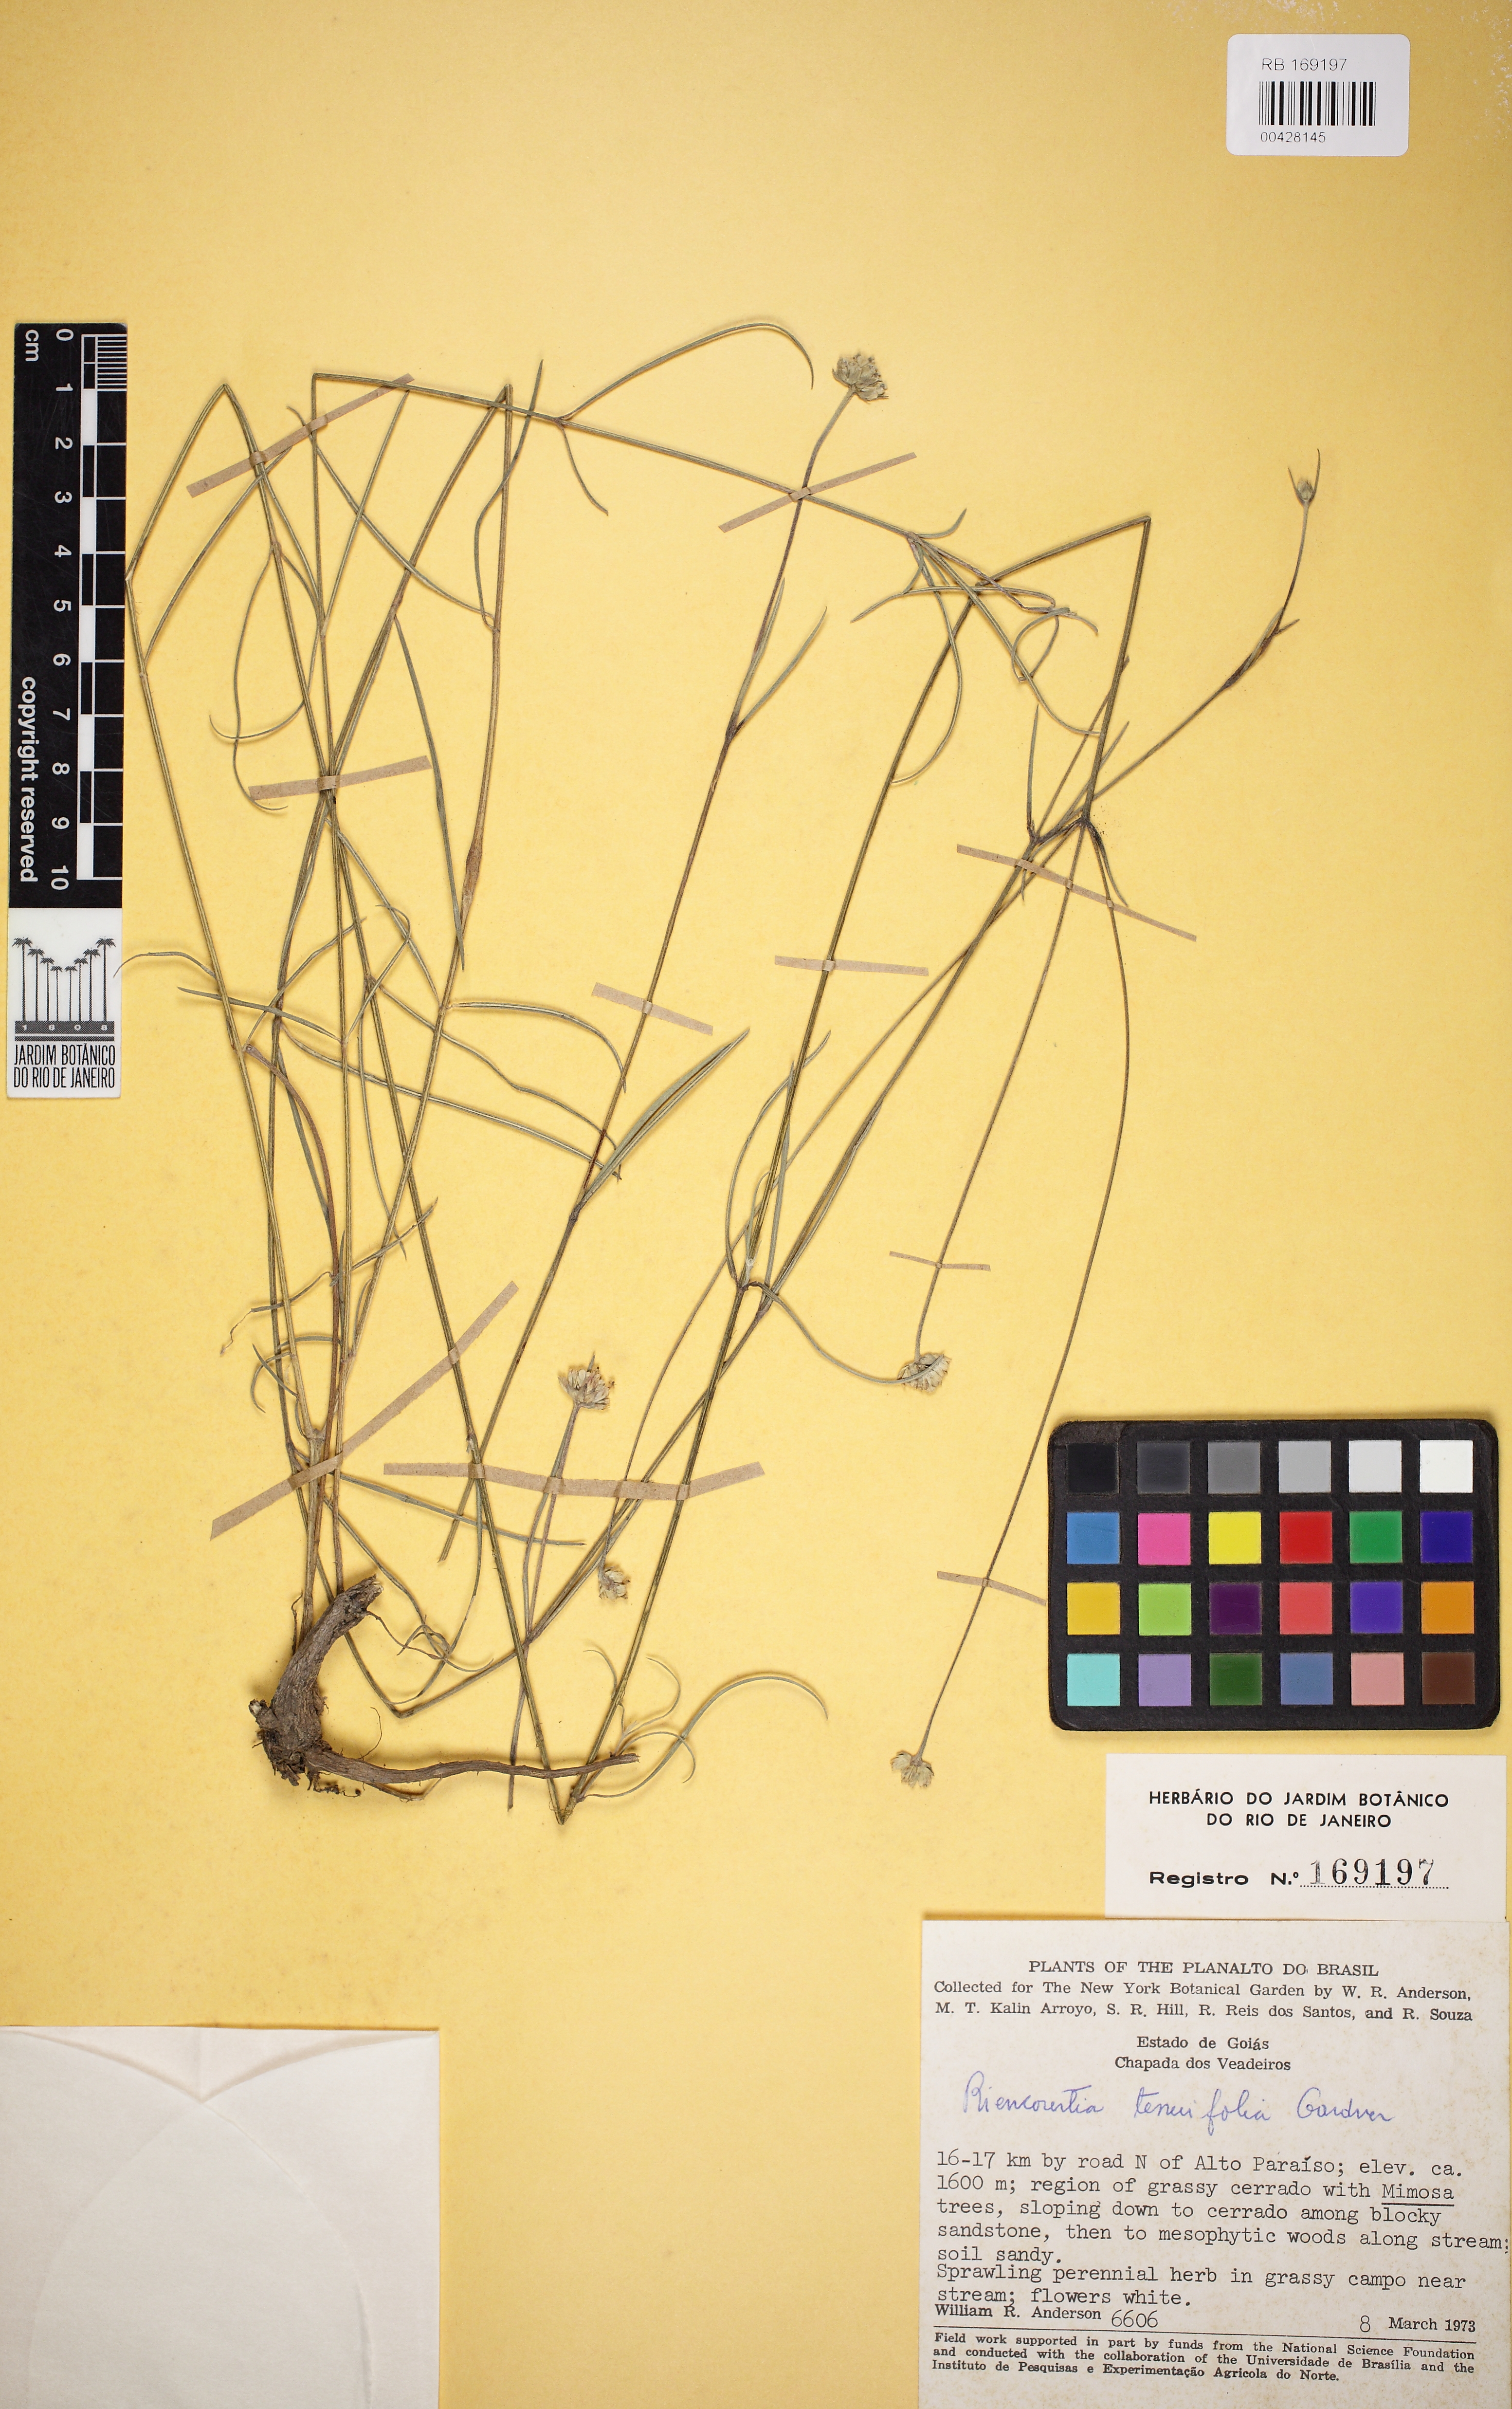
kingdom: Plantae
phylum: Tracheophyta
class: Magnoliopsida
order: Asterales
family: Asteraceae
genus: Riencourtia
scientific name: Riencourtia tenuifolia
